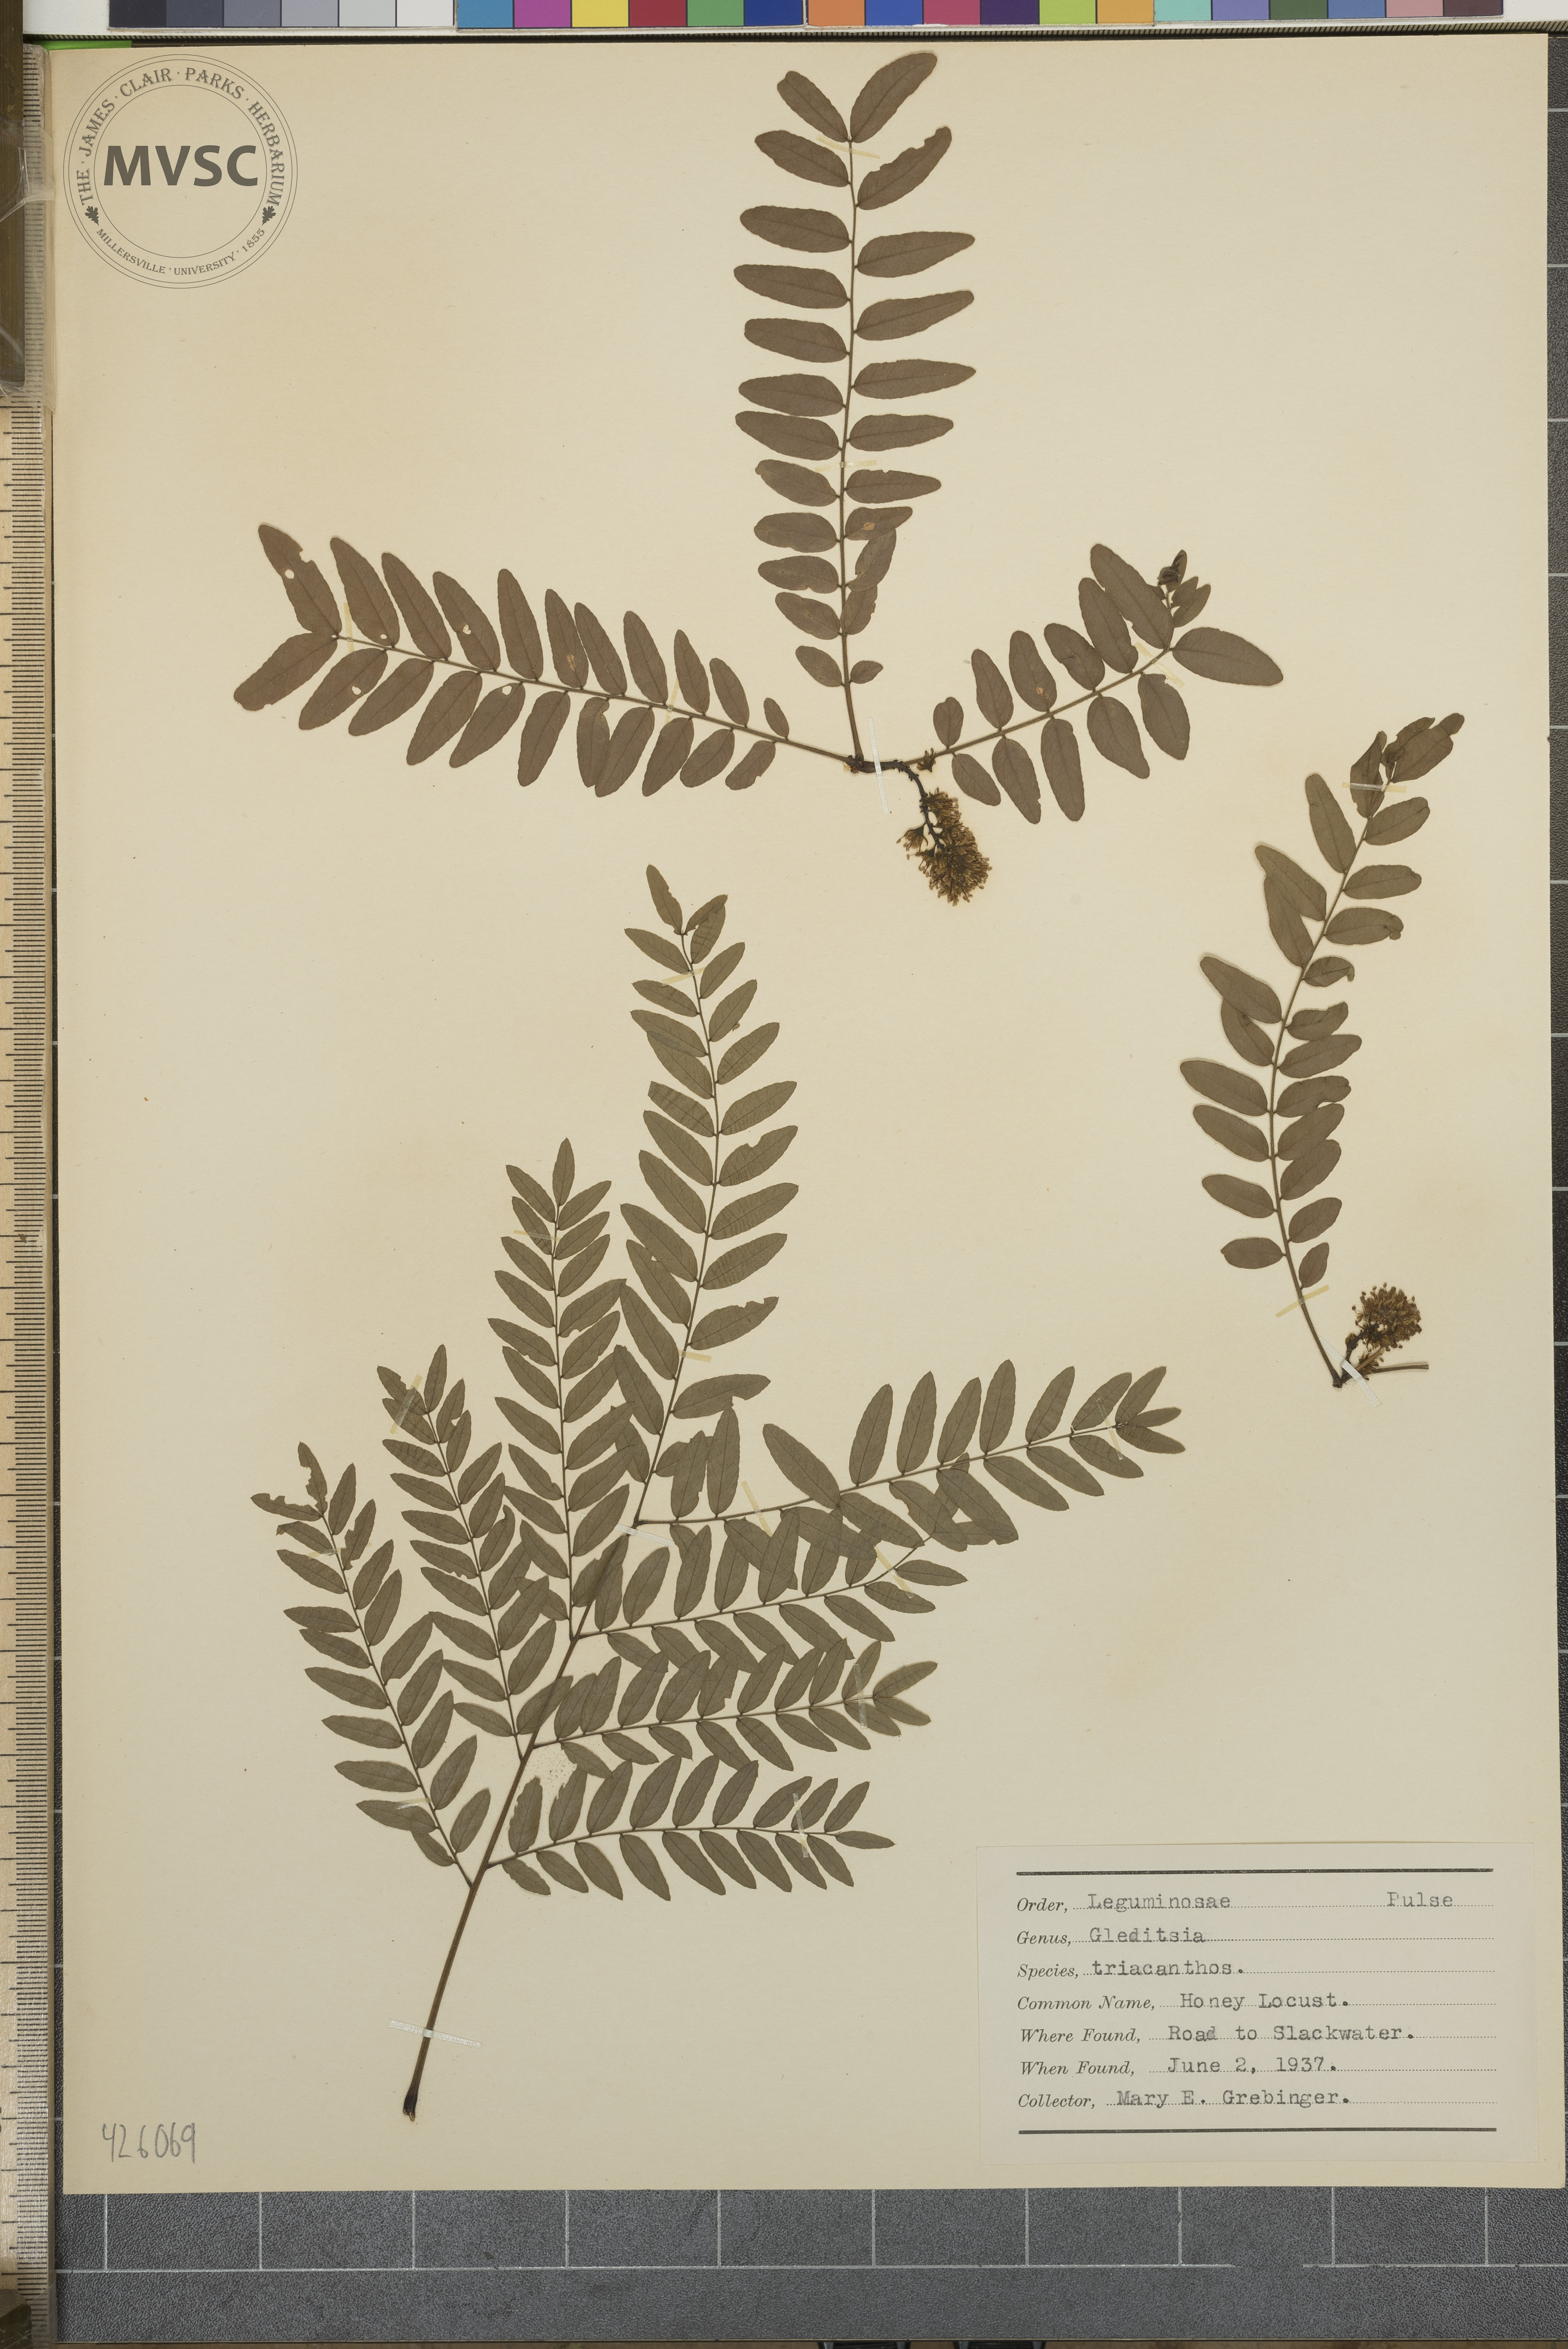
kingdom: Plantae
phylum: Tracheophyta
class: Magnoliopsida
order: Fabales
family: Fabaceae
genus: Gleditsia
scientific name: Gleditsia triacanthos
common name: Honey locust
